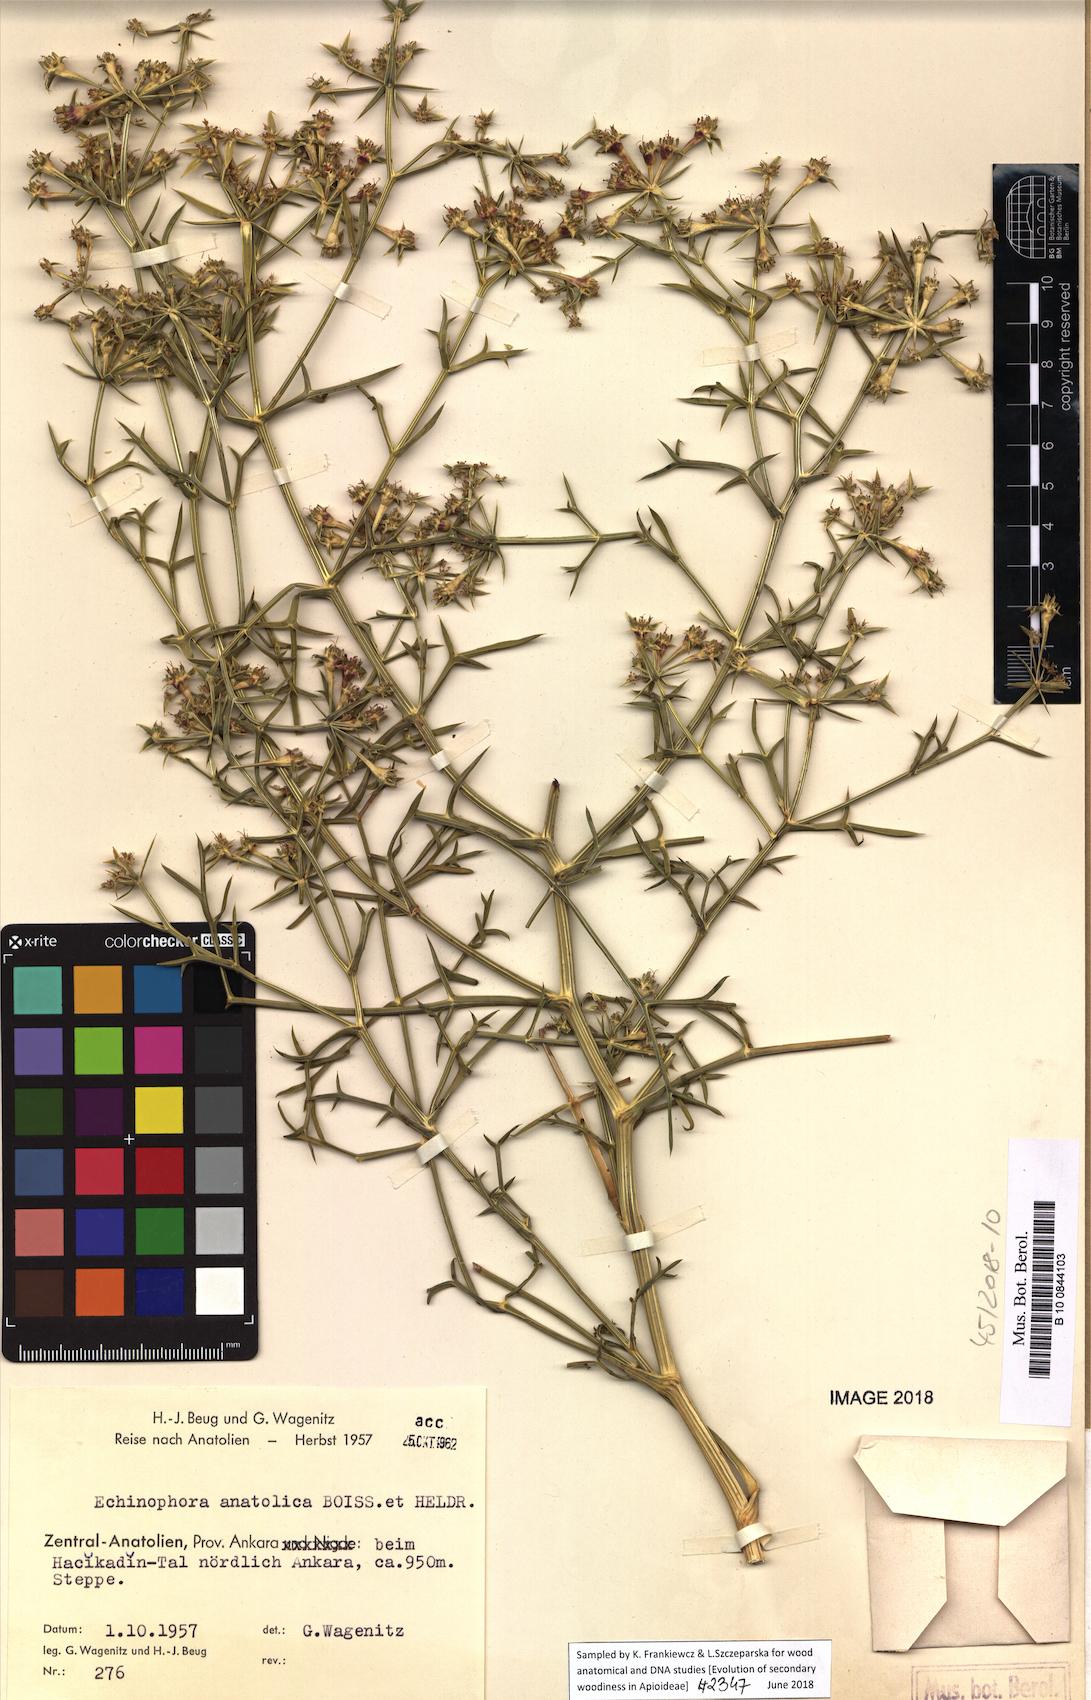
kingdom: Plantae
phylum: Tracheophyta
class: Magnoliopsida
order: Apiales
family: Apiaceae
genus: Echinophora
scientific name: Echinophora tournefortii
